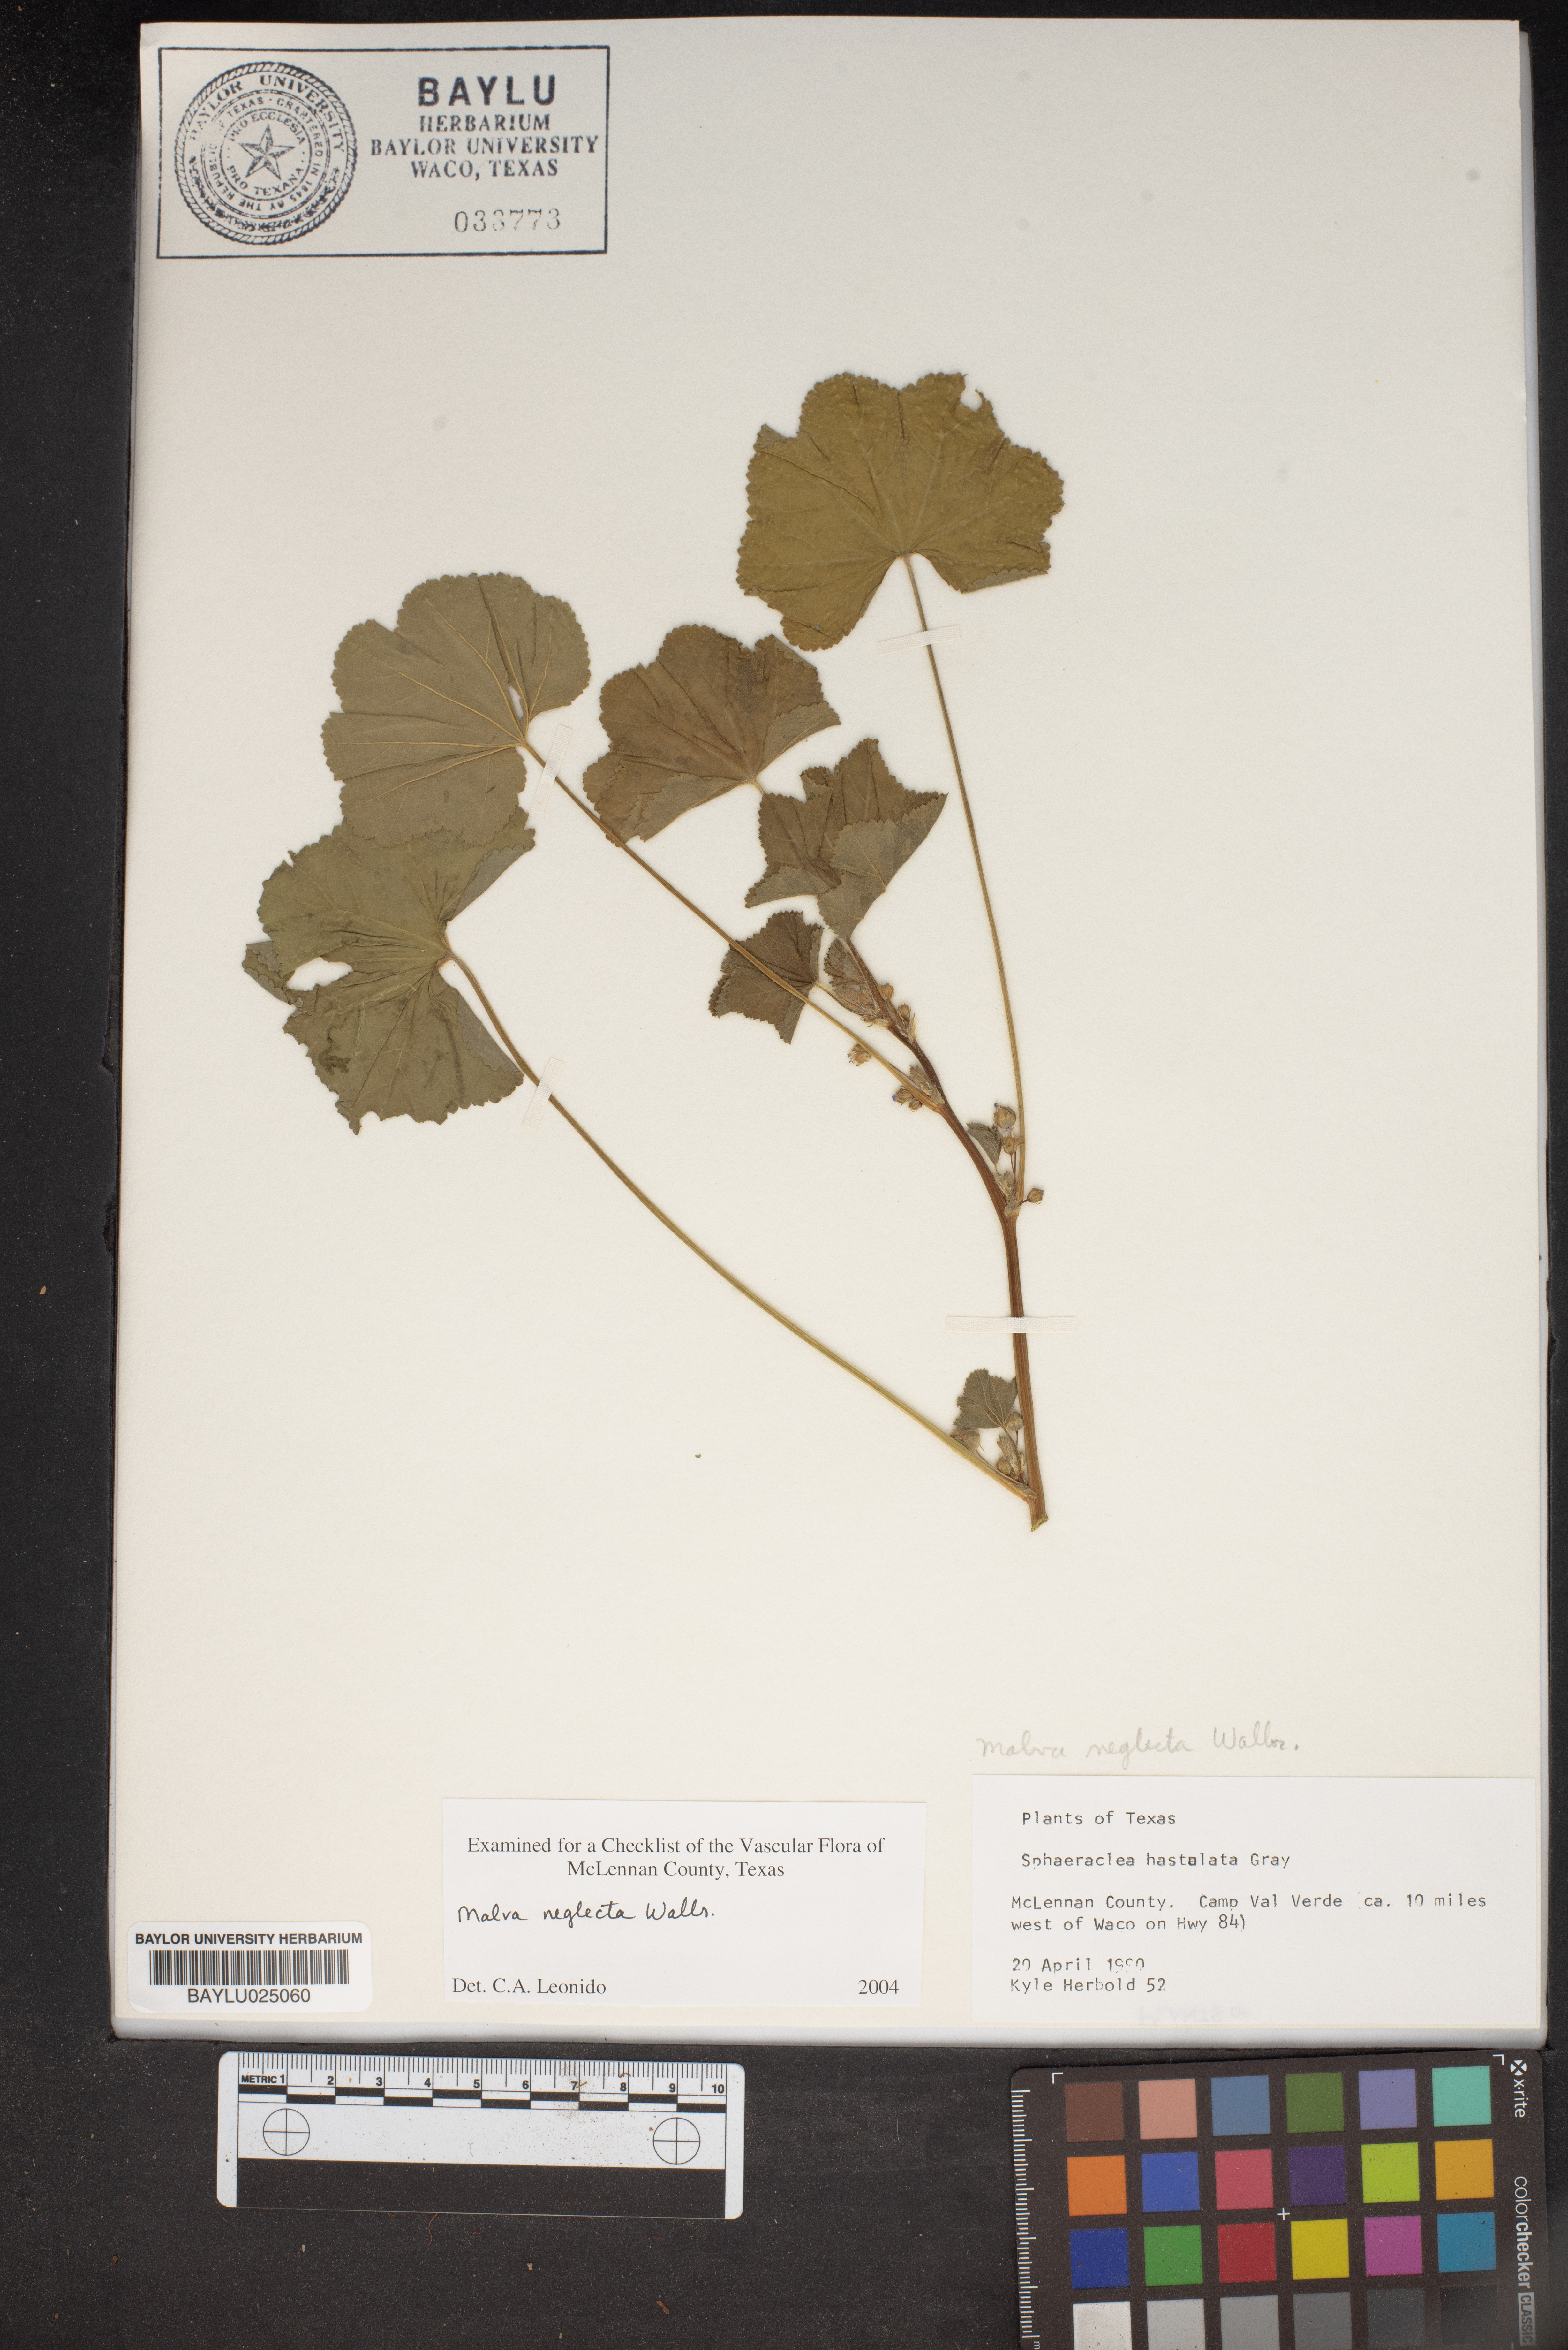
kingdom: Plantae
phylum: Tracheophyta
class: Magnoliopsida
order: Malvales
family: Malvaceae
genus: Malva
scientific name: Malva neglecta
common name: Common mallow
